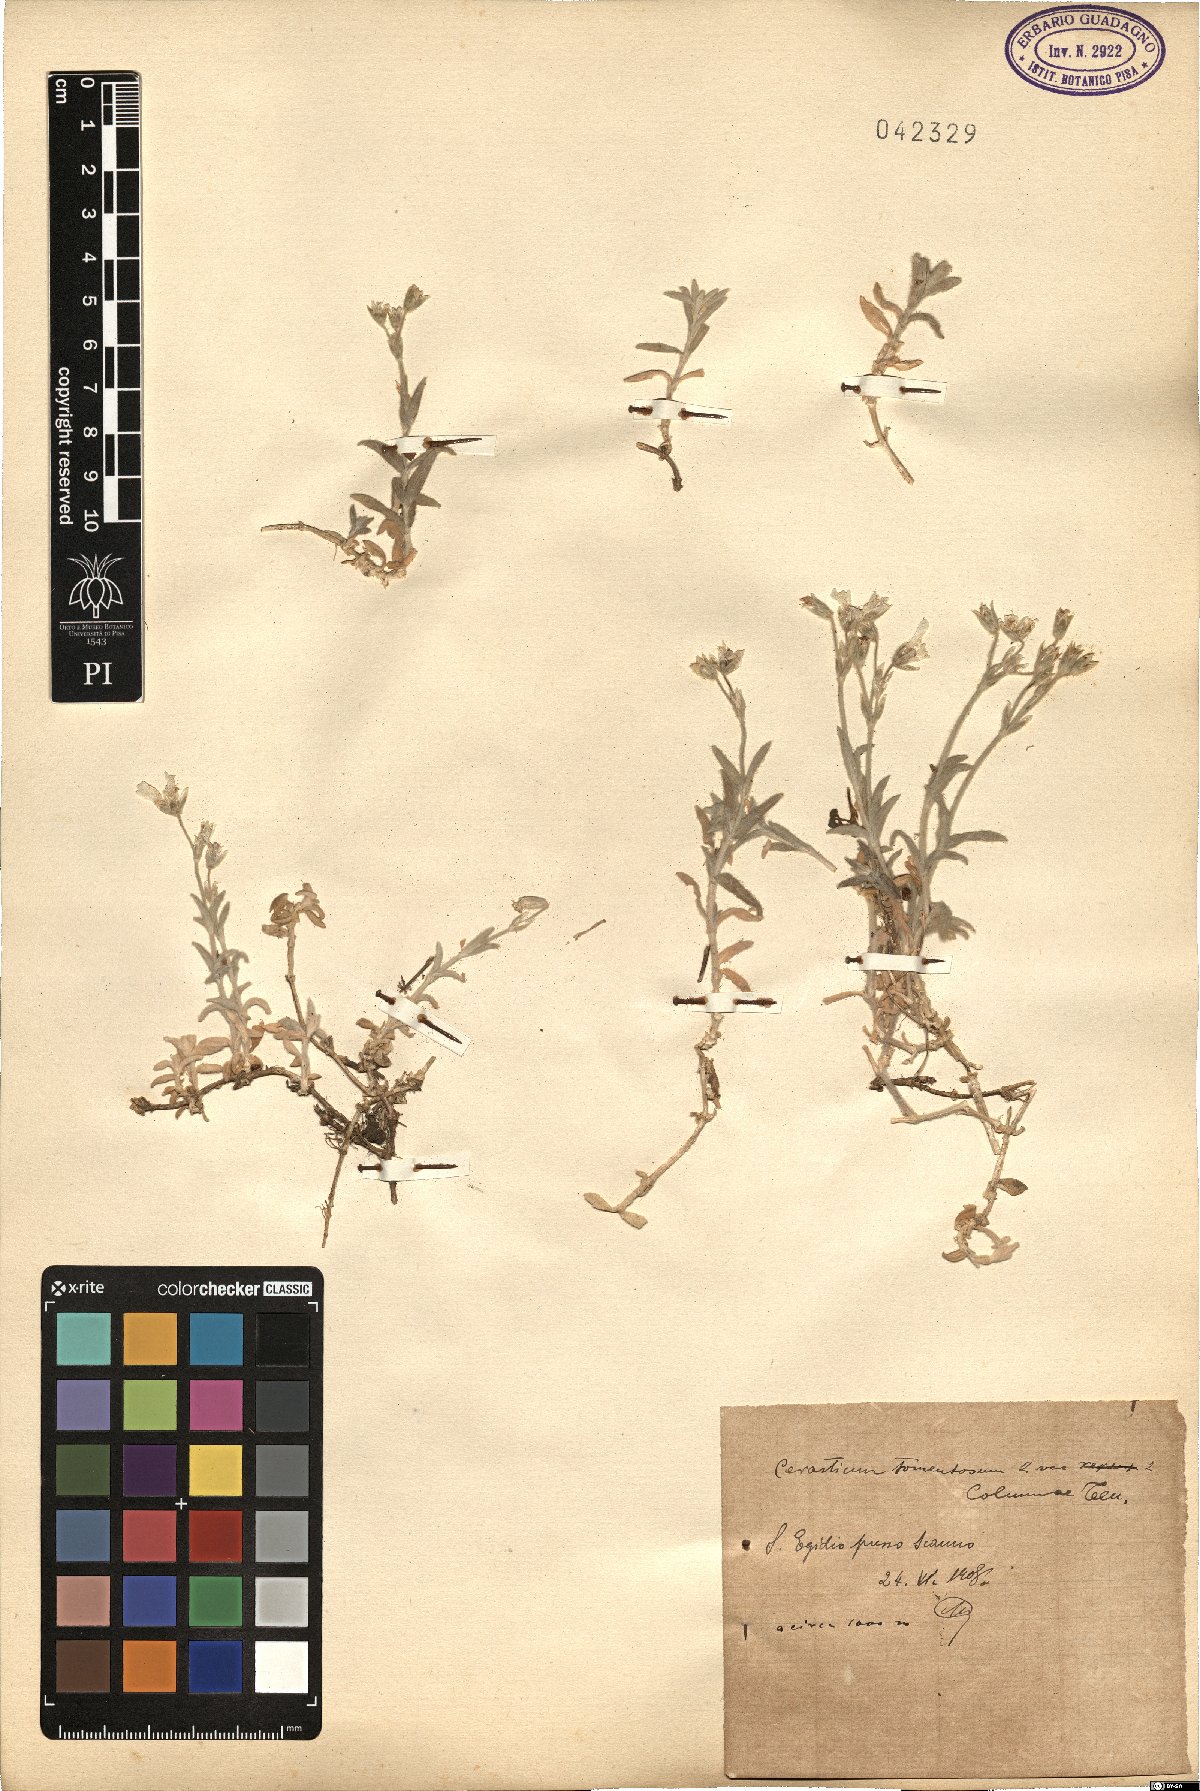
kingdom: Plantae
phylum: Tracheophyta
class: Magnoliopsida
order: Caryophyllales
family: Caryophyllaceae
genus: Cerastium
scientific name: Cerastium tomentosum
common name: Snow-in-summer
